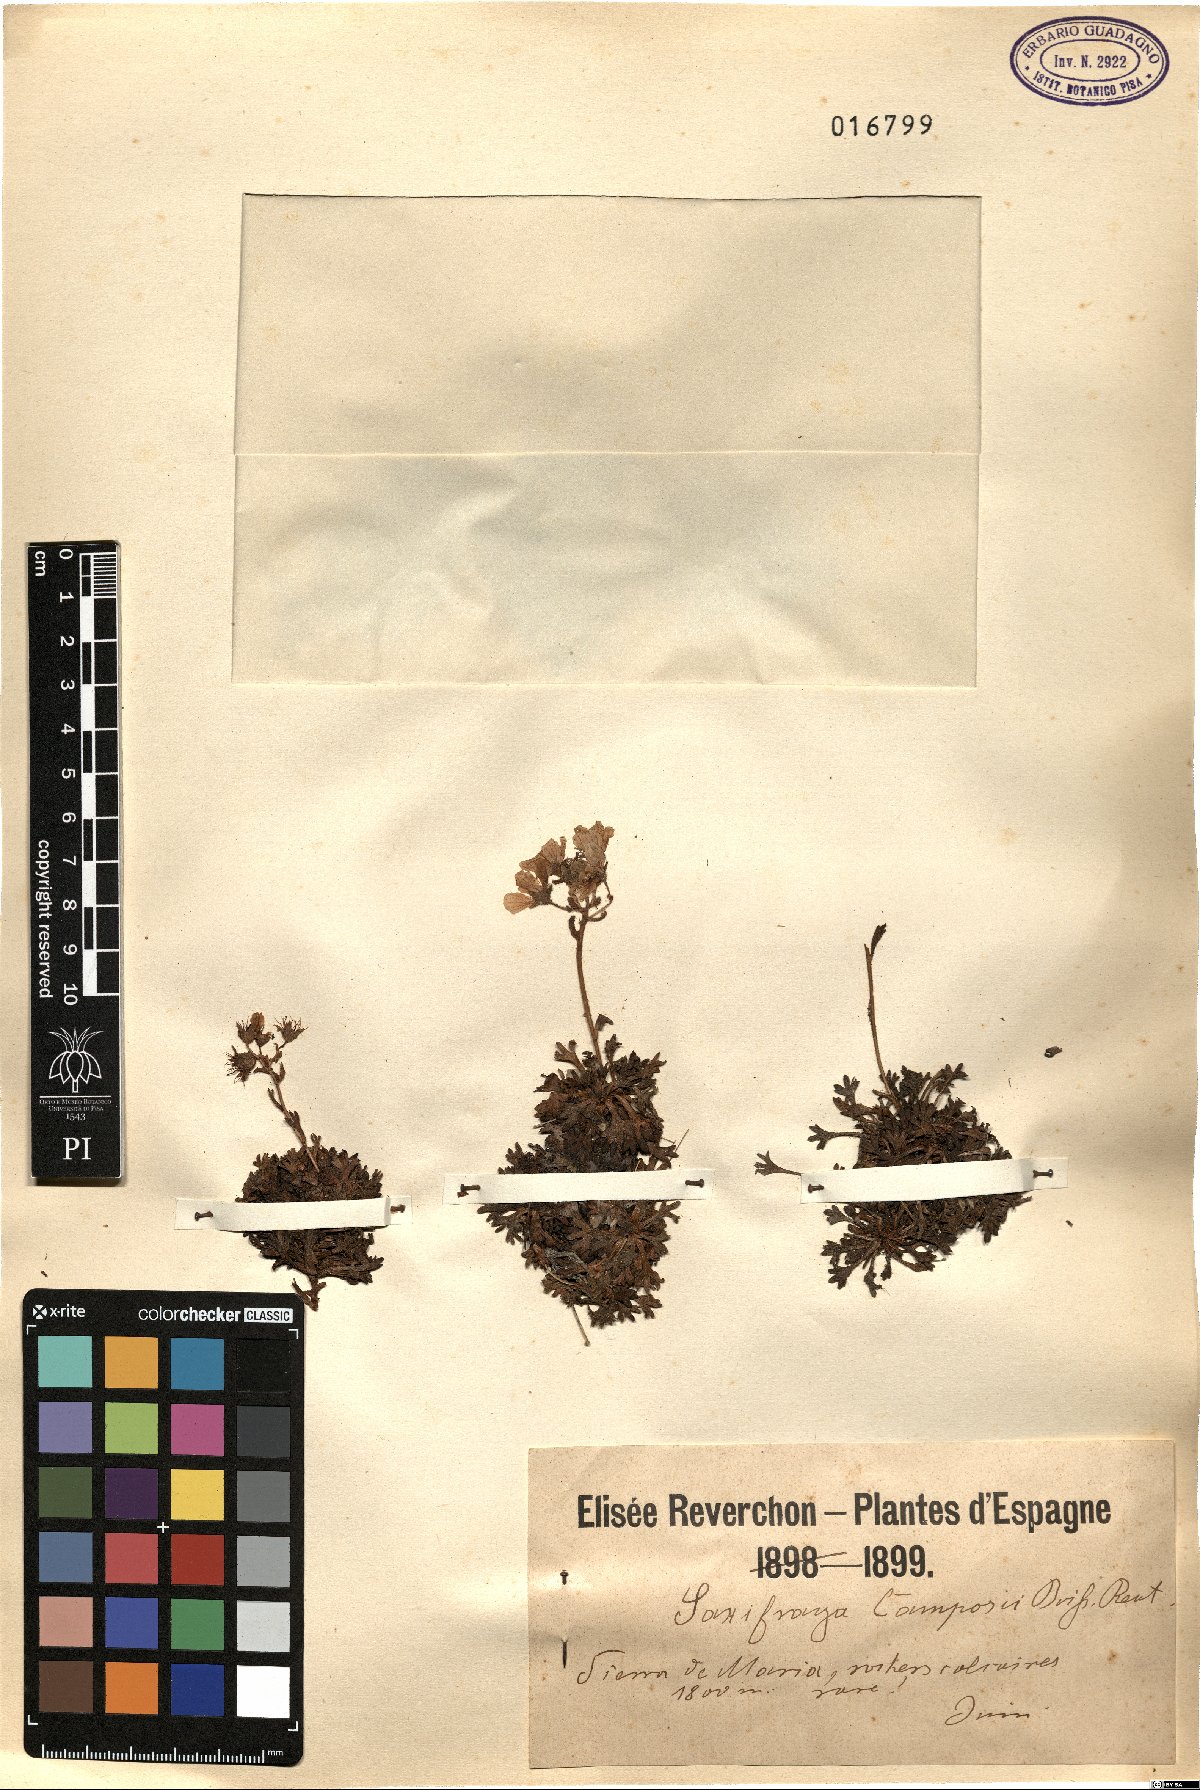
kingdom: Plantae
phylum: Tracheophyta
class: Magnoliopsida
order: Saxifragales
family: Saxifragaceae
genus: Saxifraga
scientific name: Saxifraga camposii
